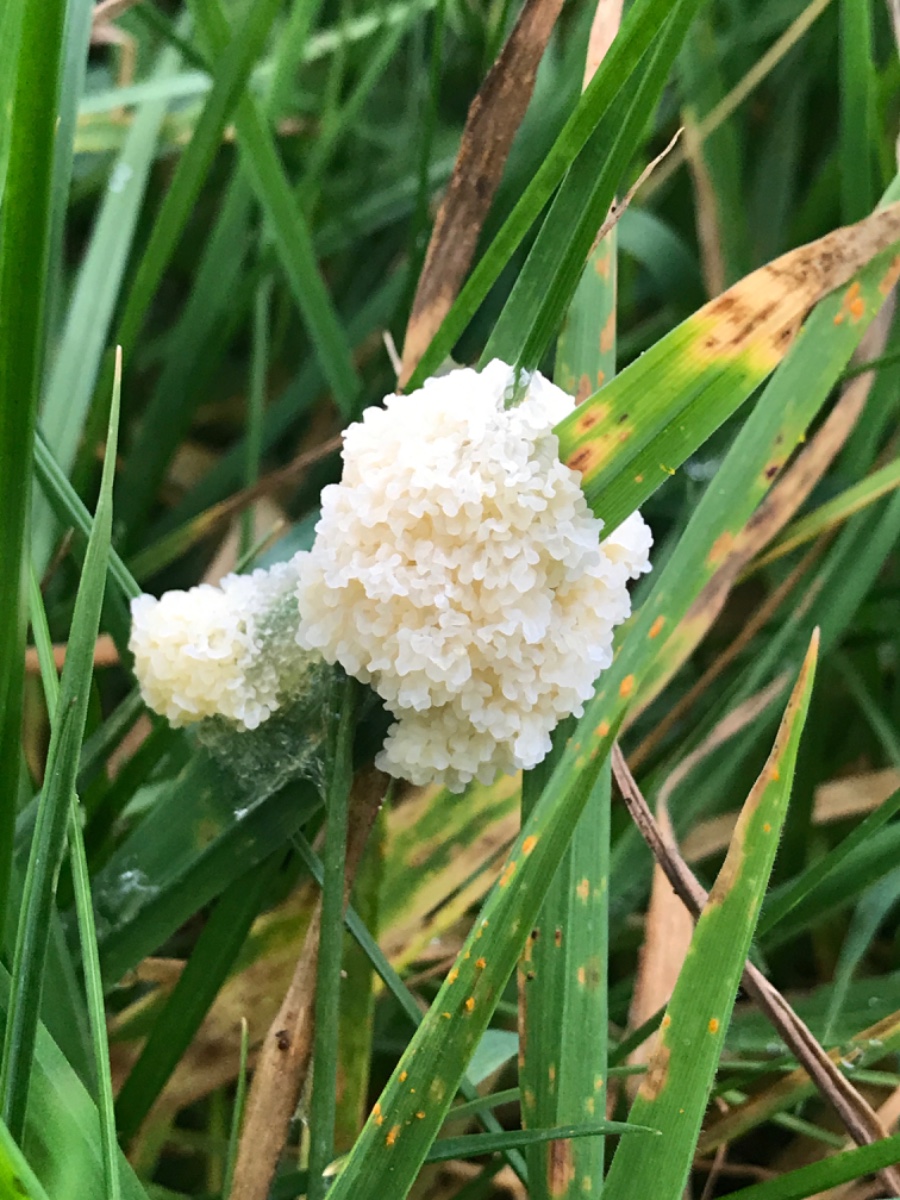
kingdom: Protozoa
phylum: Mycetozoa
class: Myxomycetes
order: Physarales
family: Physaraceae
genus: Didymium
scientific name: Didymium
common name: urteskum
